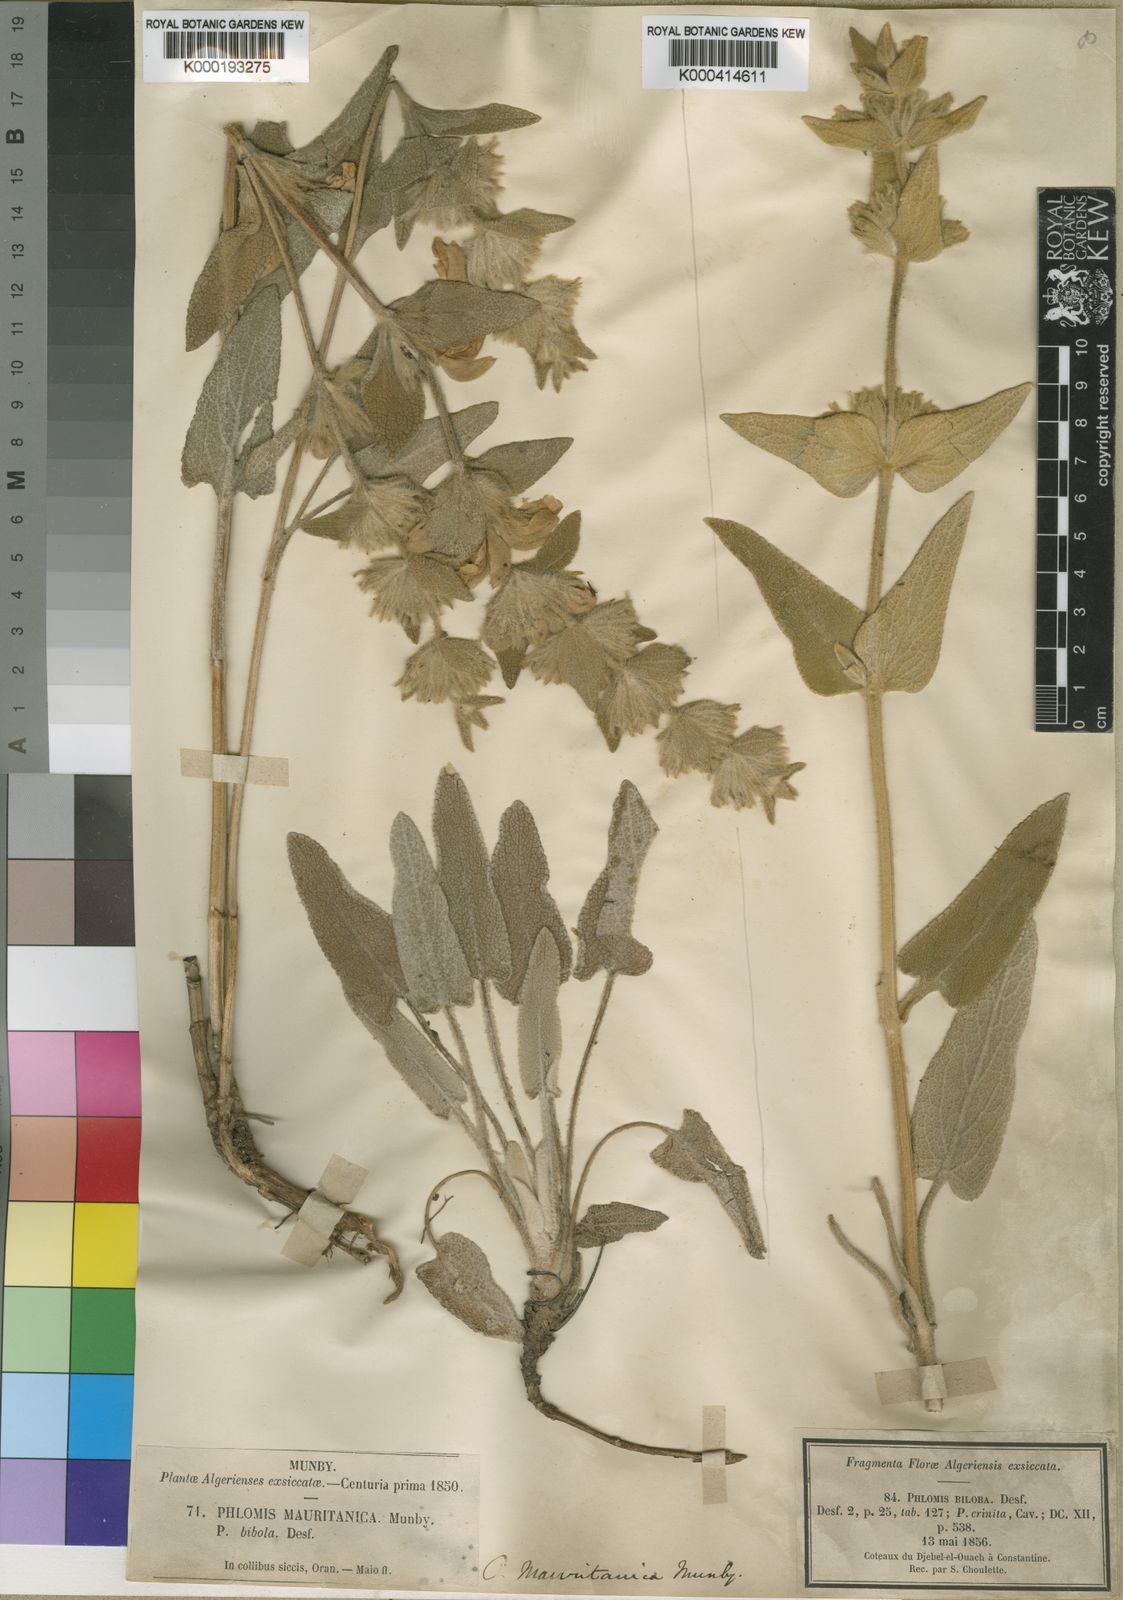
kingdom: Plantae
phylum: Tracheophyta
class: Magnoliopsida
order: Lamiales
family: Lamiaceae
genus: Phlomis
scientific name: Phlomis crinita
